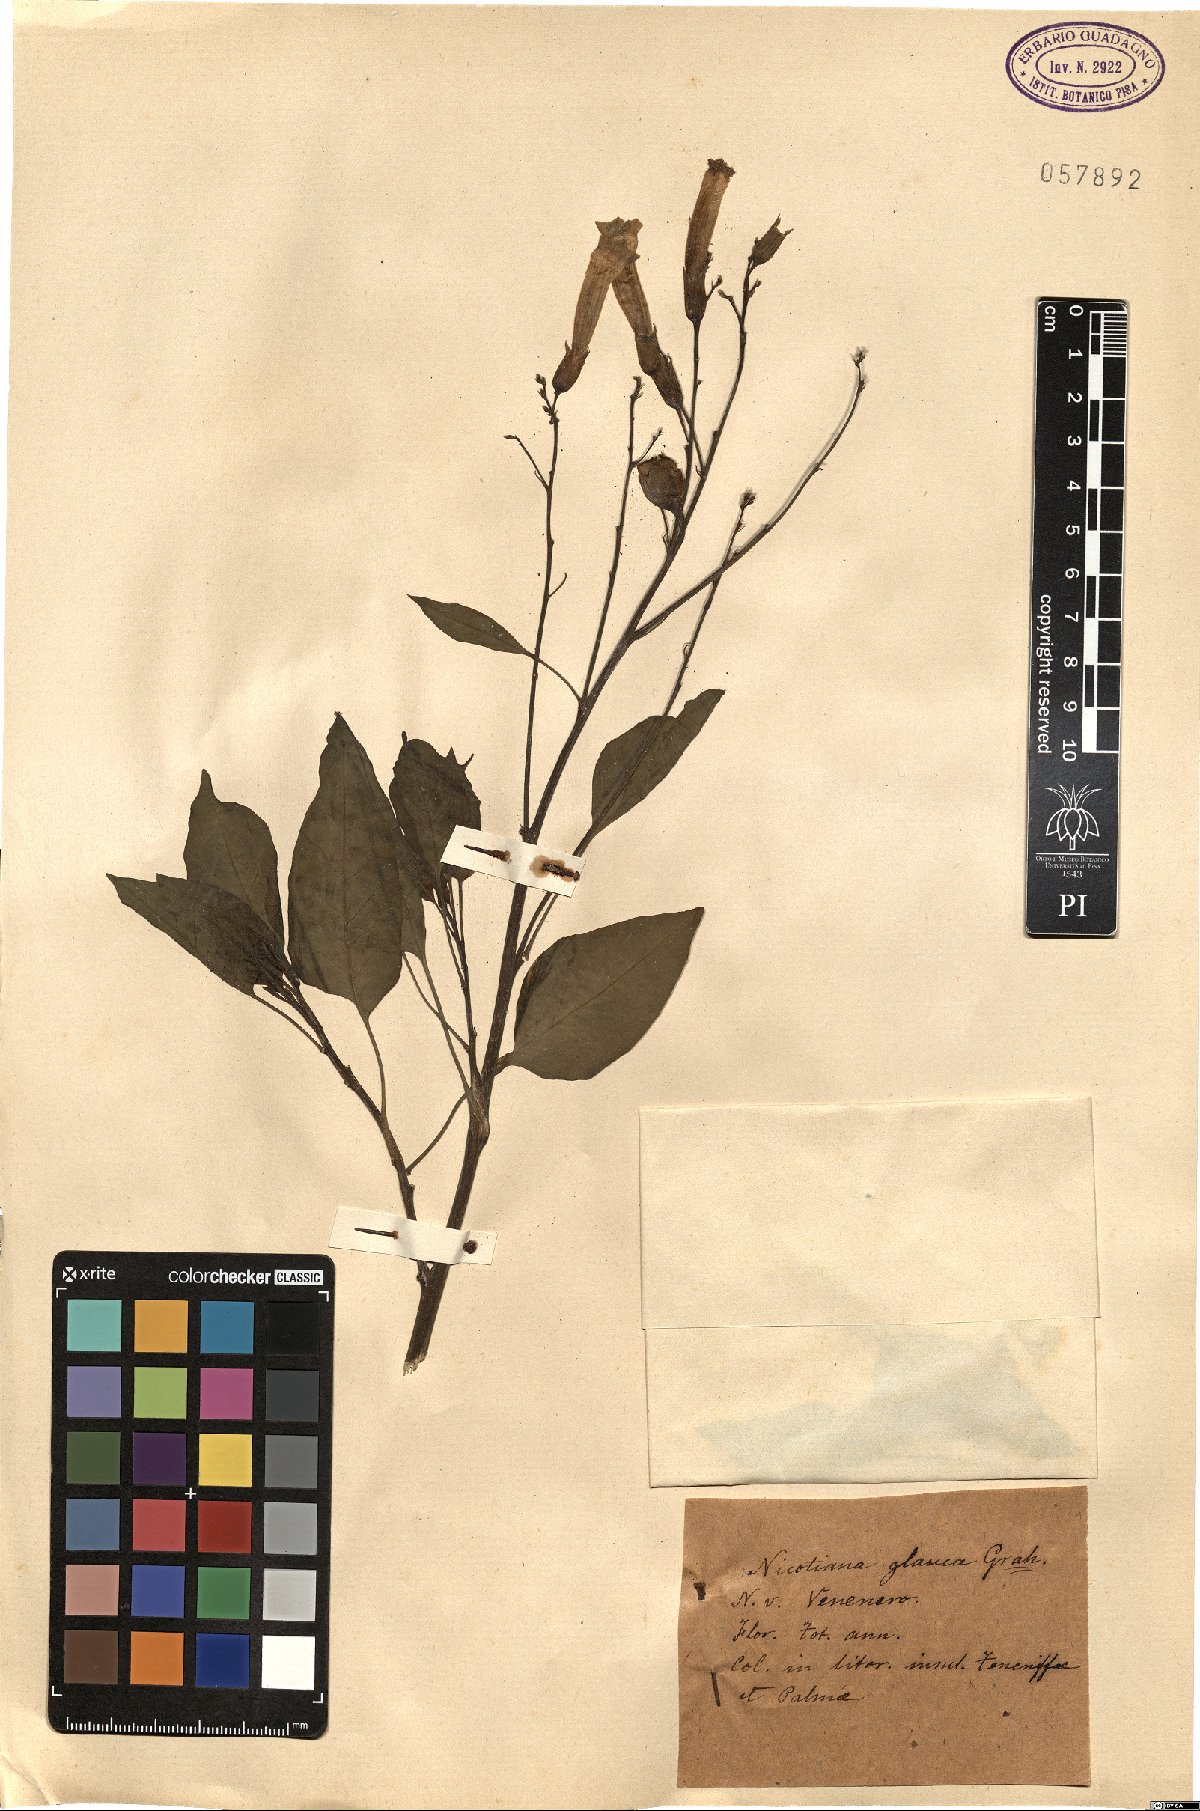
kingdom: Plantae
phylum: Tracheophyta
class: Magnoliopsida
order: Solanales
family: Solanaceae
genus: Nicotiana
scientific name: Nicotiana glauca
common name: Tree tobacco
